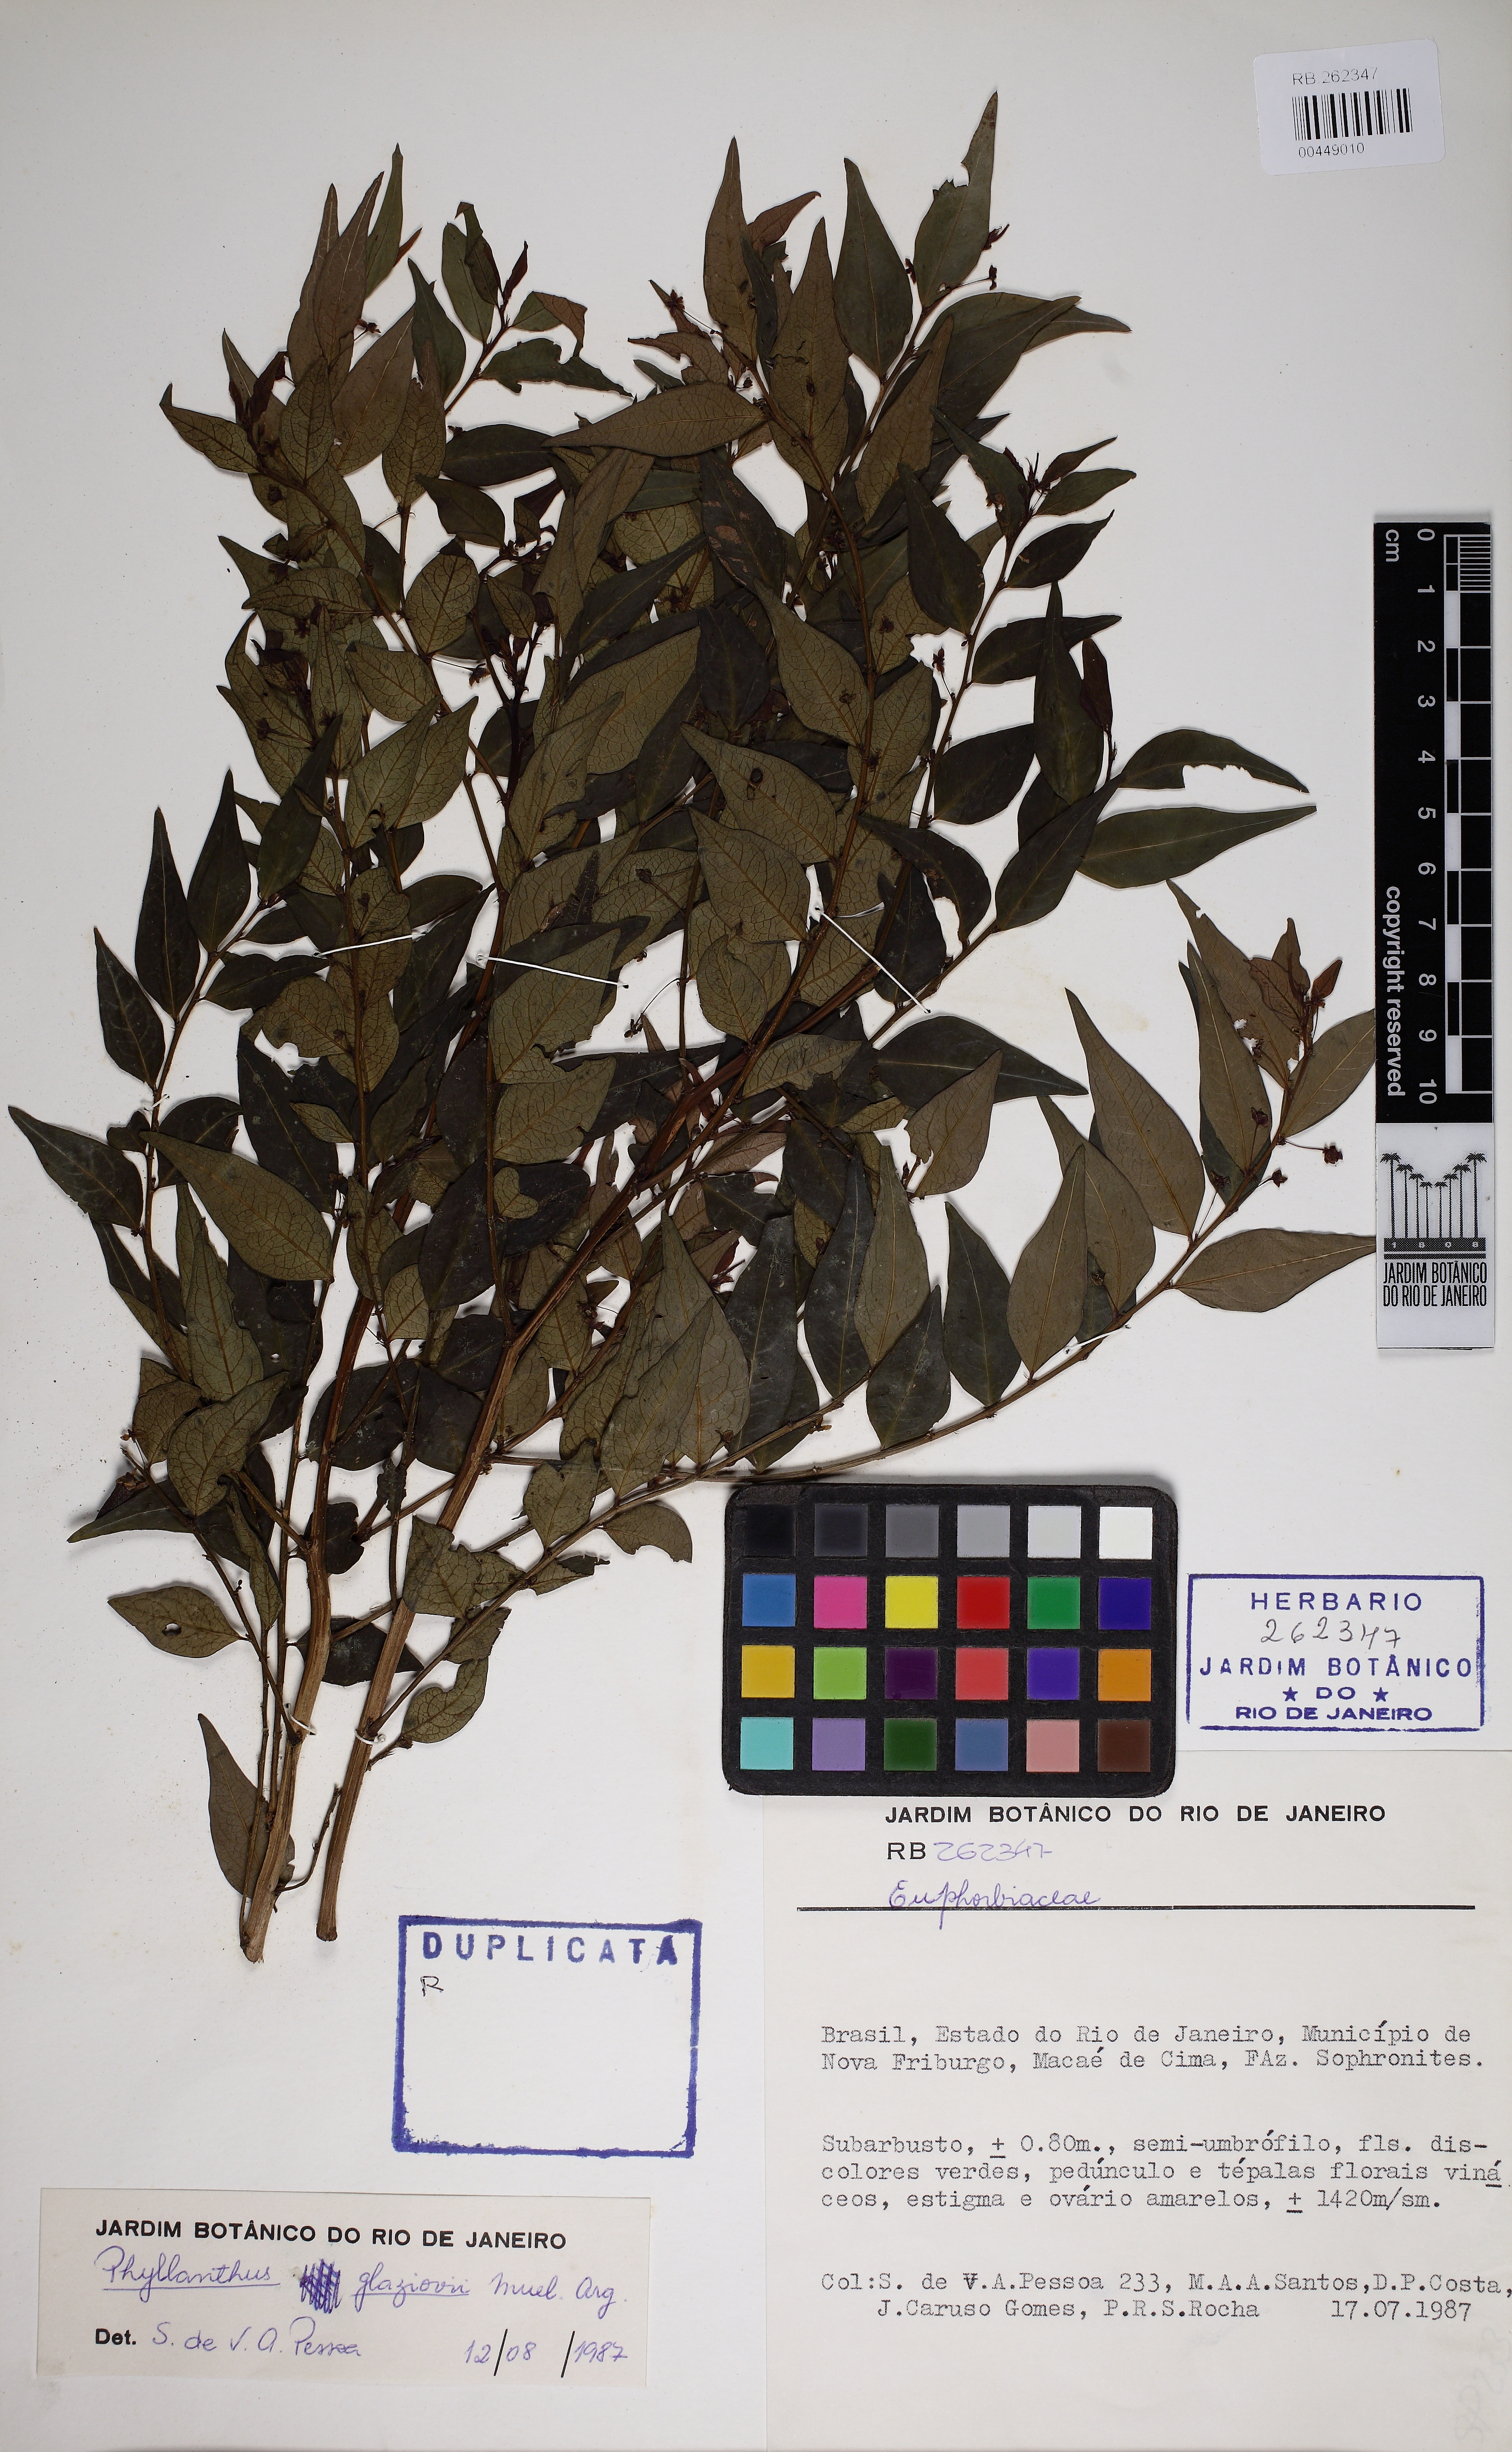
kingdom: Plantae
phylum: Tracheophyta
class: Magnoliopsida
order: Malpighiales
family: Phyllanthaceae
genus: Phyllanthus
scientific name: Phyllanthus glaziovii
